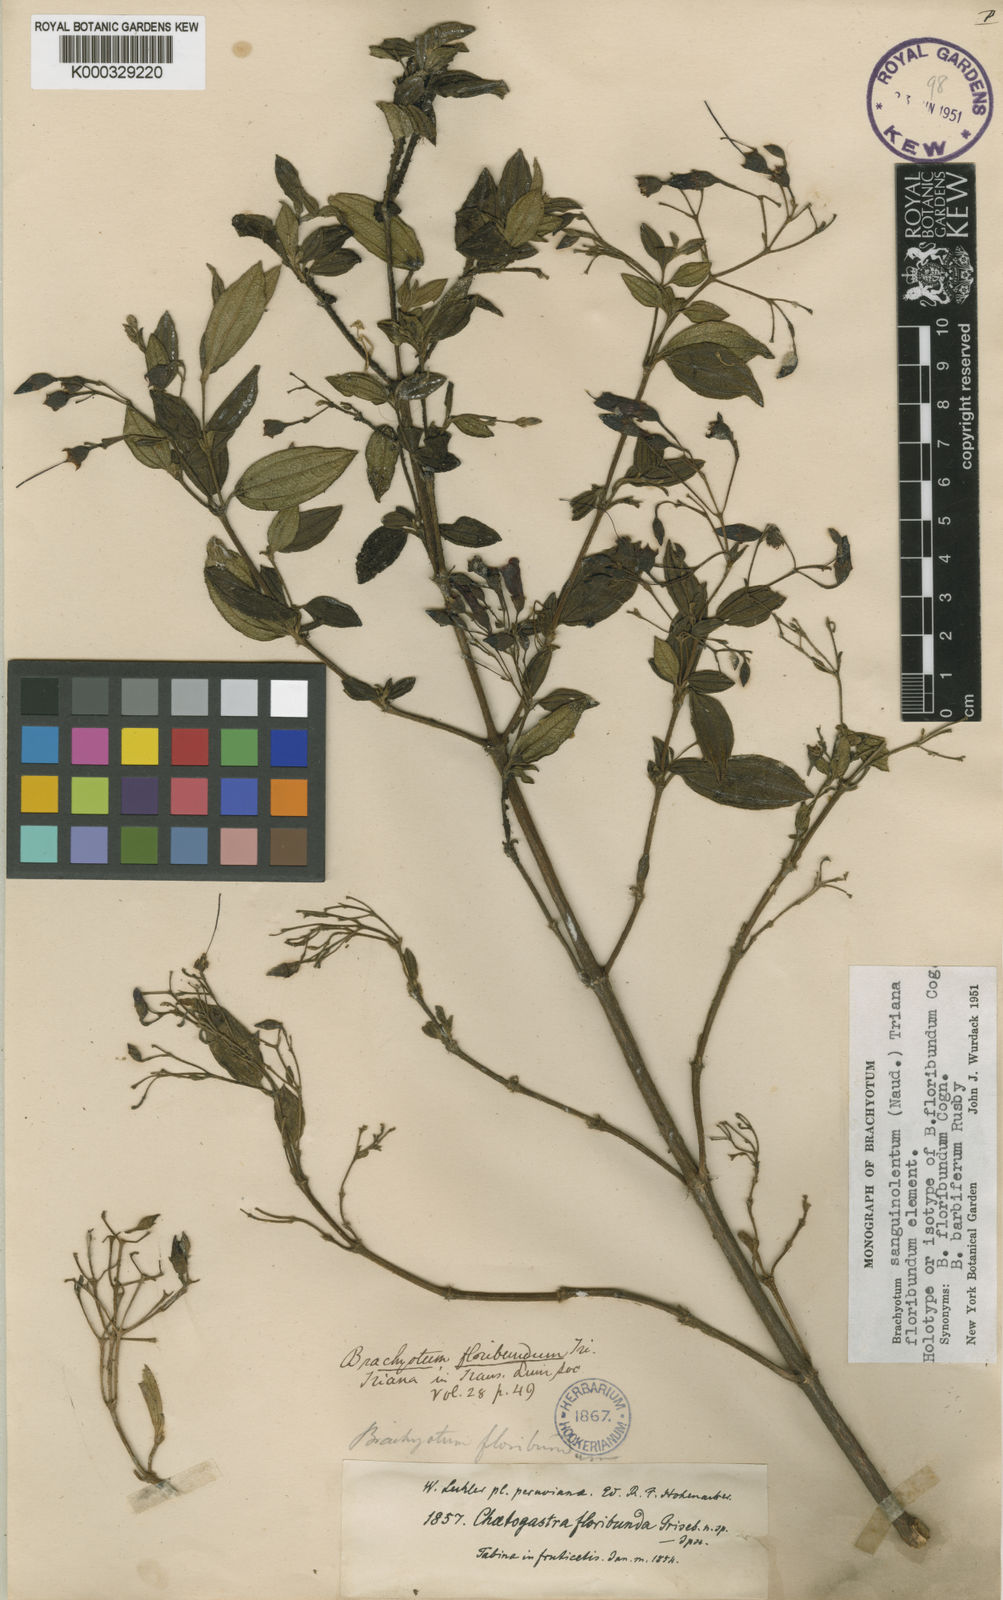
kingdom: Plantae
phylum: Tracheophyta
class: Magnoliopsida
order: Myrtales
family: Melastomataceae
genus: Brachyotum
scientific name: Brachyotum sanguinolentum
